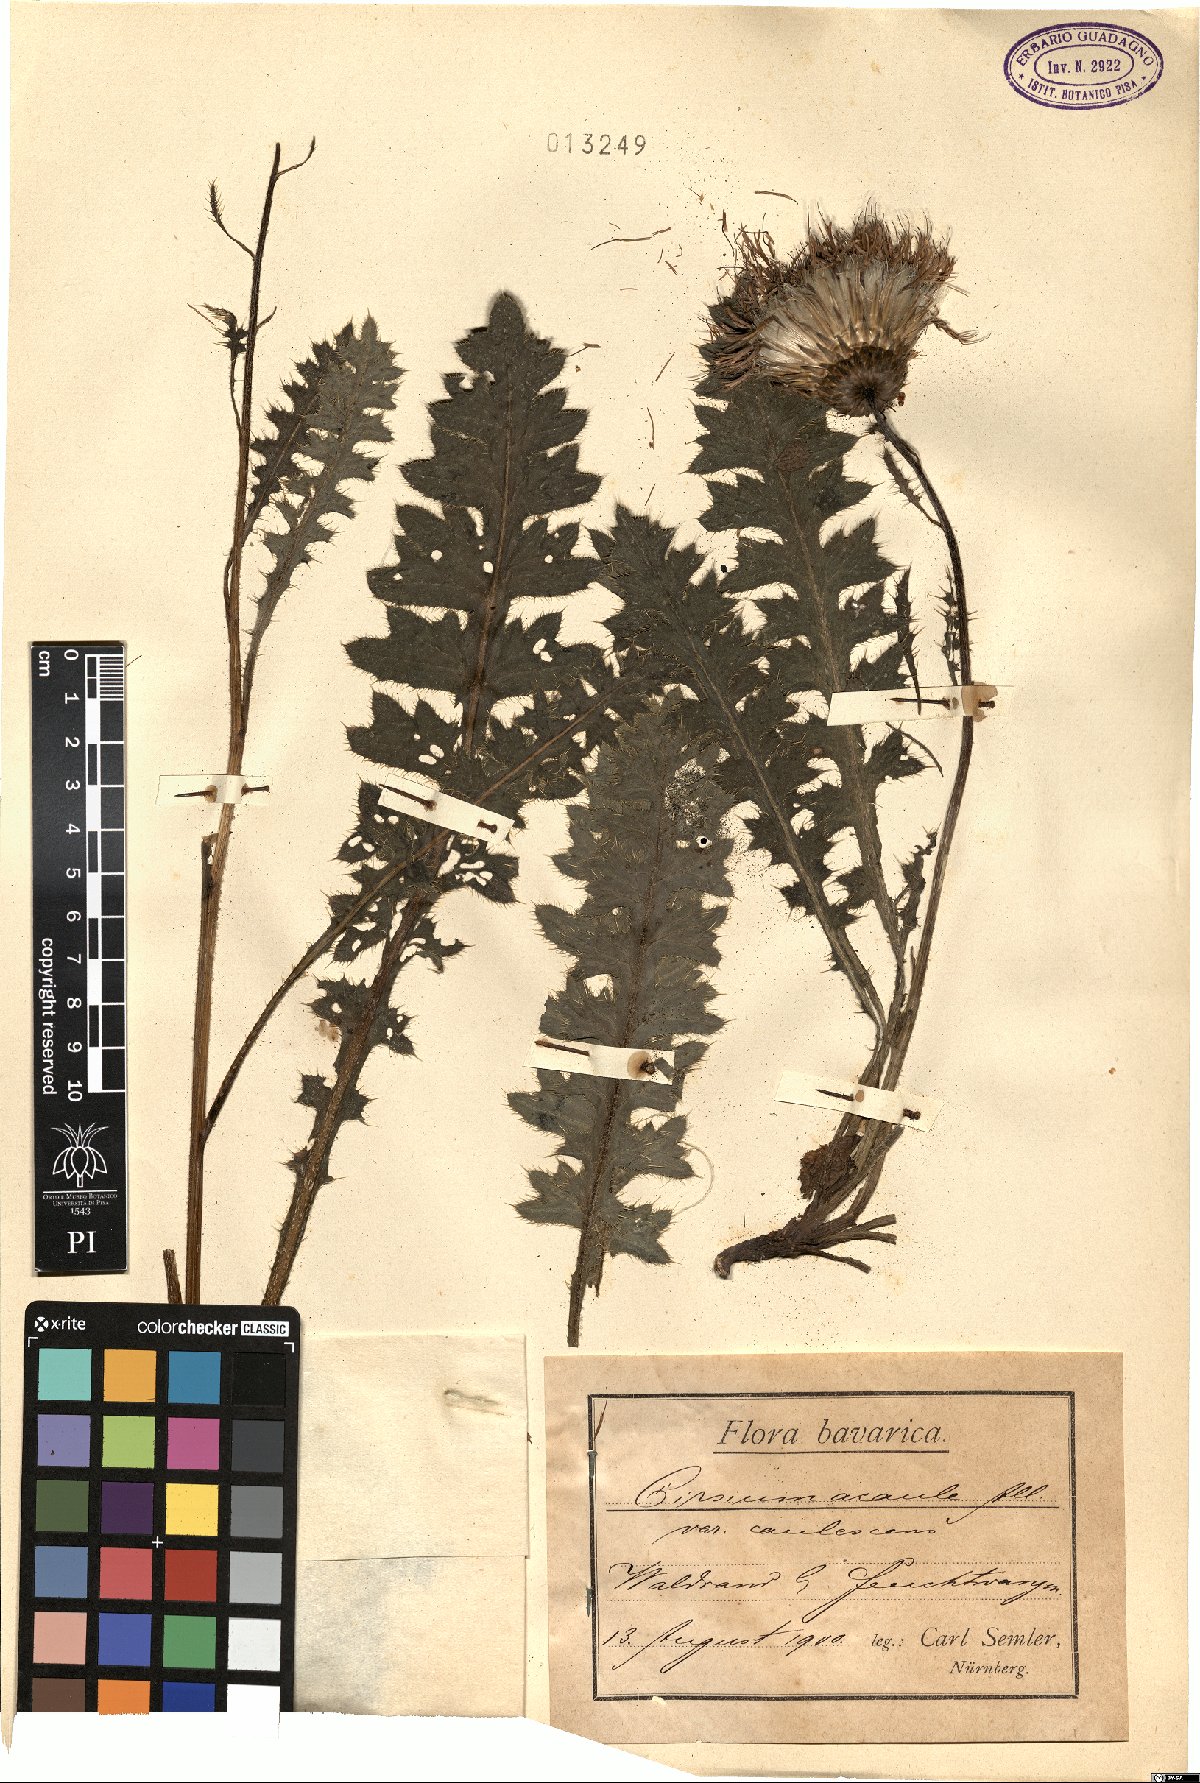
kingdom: Plantae
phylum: Tracheophyta
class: Magnoliopsida
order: Asterales
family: Asteraceae
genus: Cirsium
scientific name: Cirsium acaule
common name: Dwarf thistle
